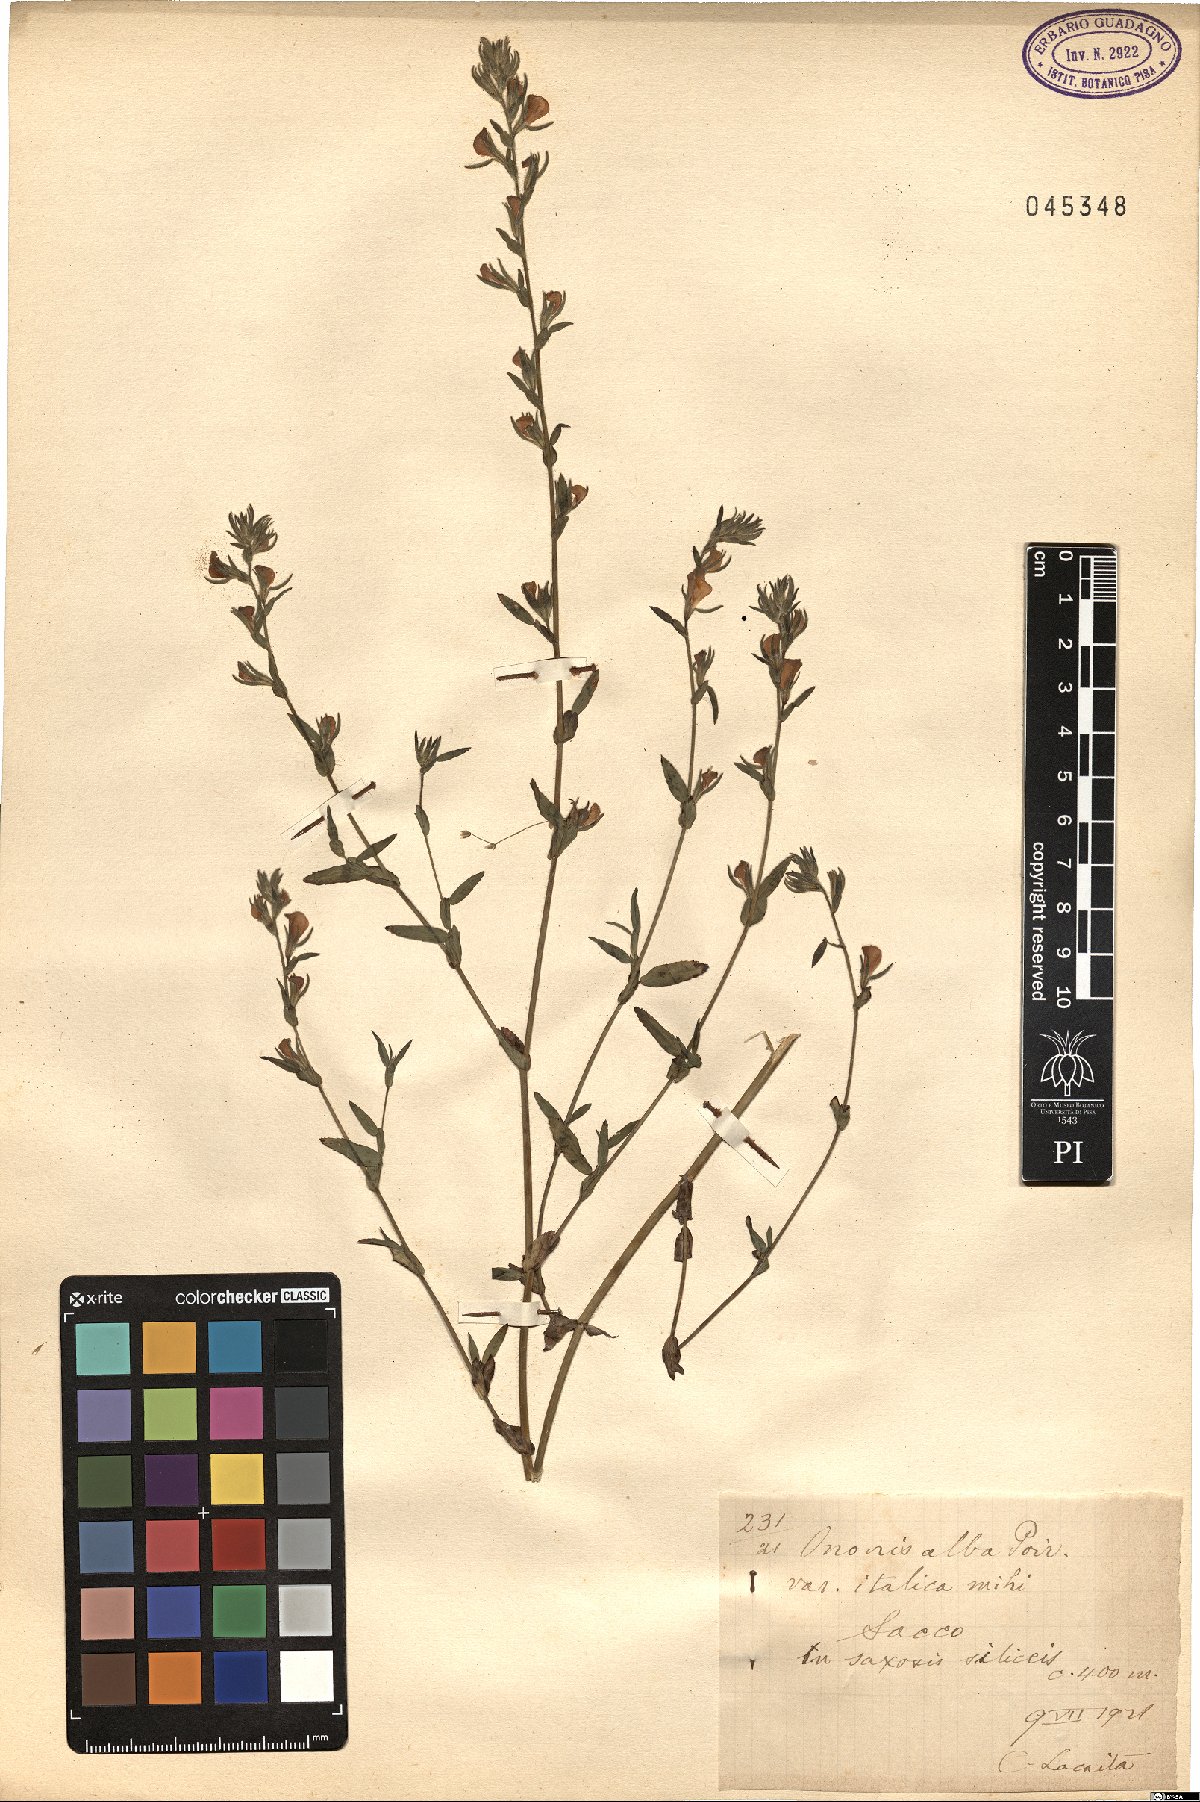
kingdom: Plantae
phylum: Tracheophyta
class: Magnoliopsida
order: Fabales
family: Fabaceae
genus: Ononis
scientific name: Ononis alba
